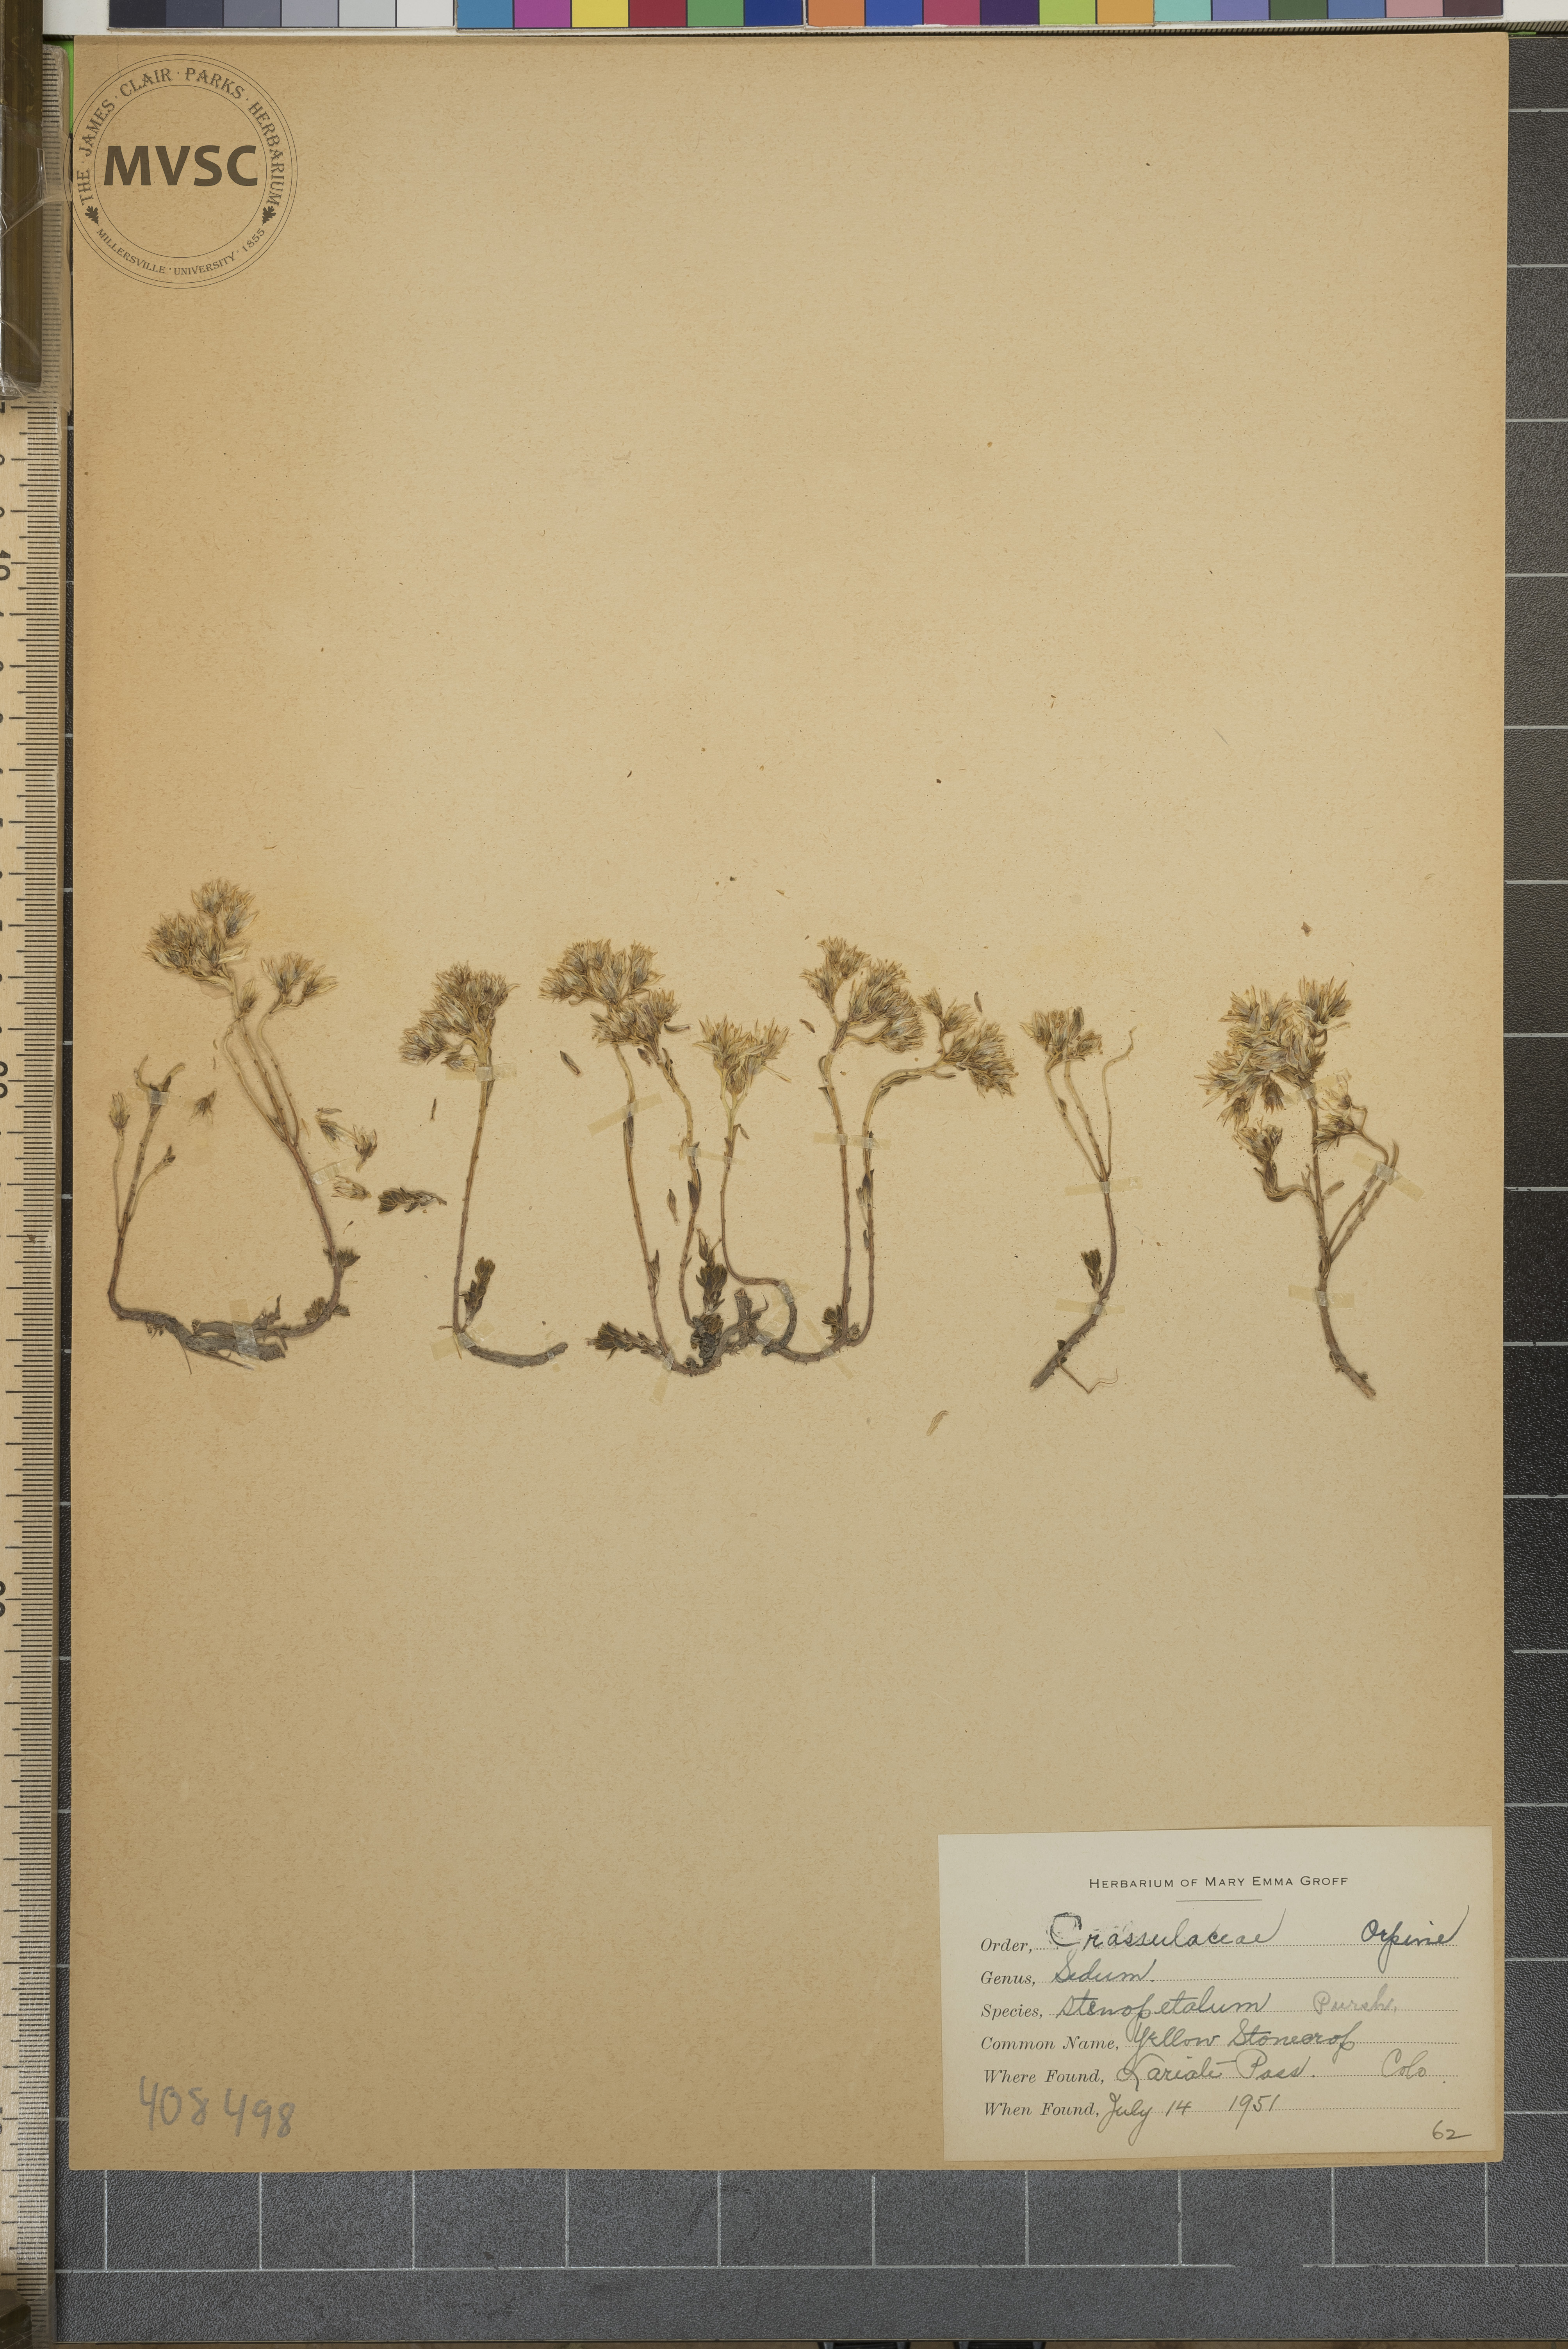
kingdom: Plantae
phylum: Tracheophyta
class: Magnoliopsida
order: Saxifragales
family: Crassulaceae
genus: Sedum
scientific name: Sedum lanceolatum
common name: Yellow Stonecrop
